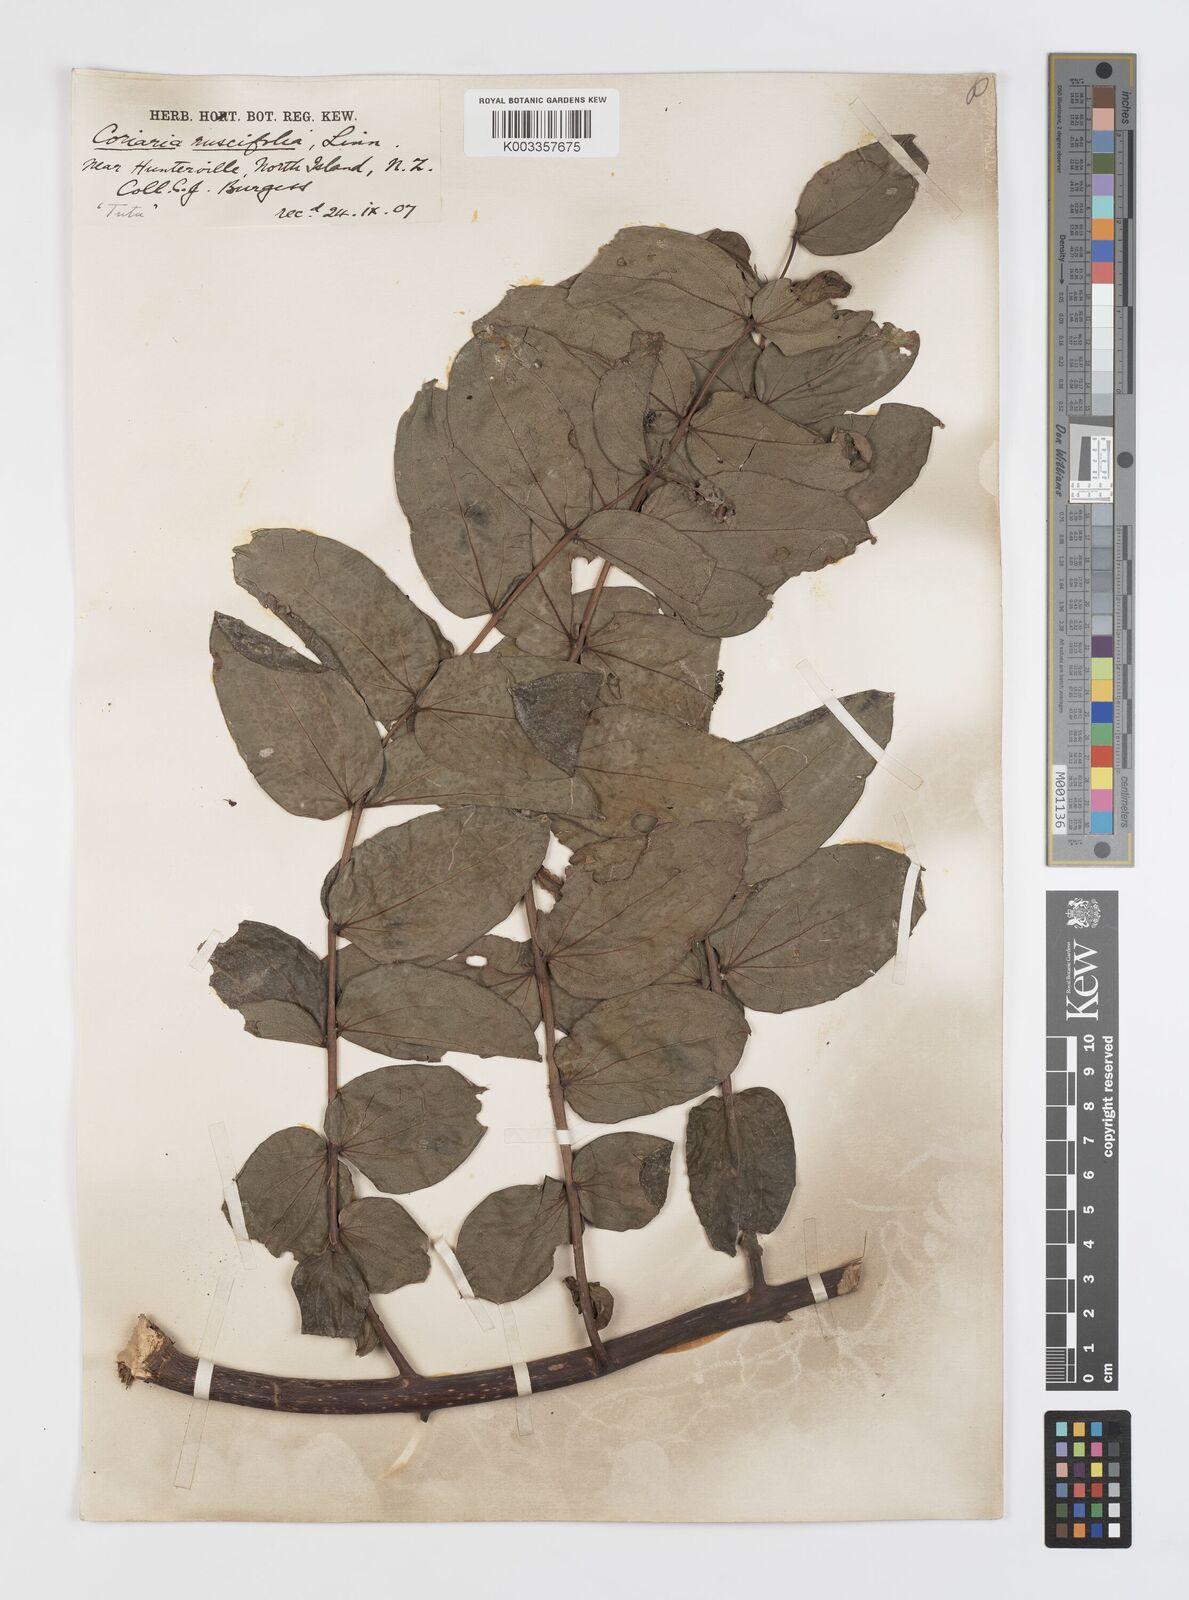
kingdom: Plantae
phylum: Tracheophyta
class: Magnoliopsida
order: Cucurbitales
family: Coriariaceae
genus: Coriaria
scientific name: Coriaria ruscifolia
